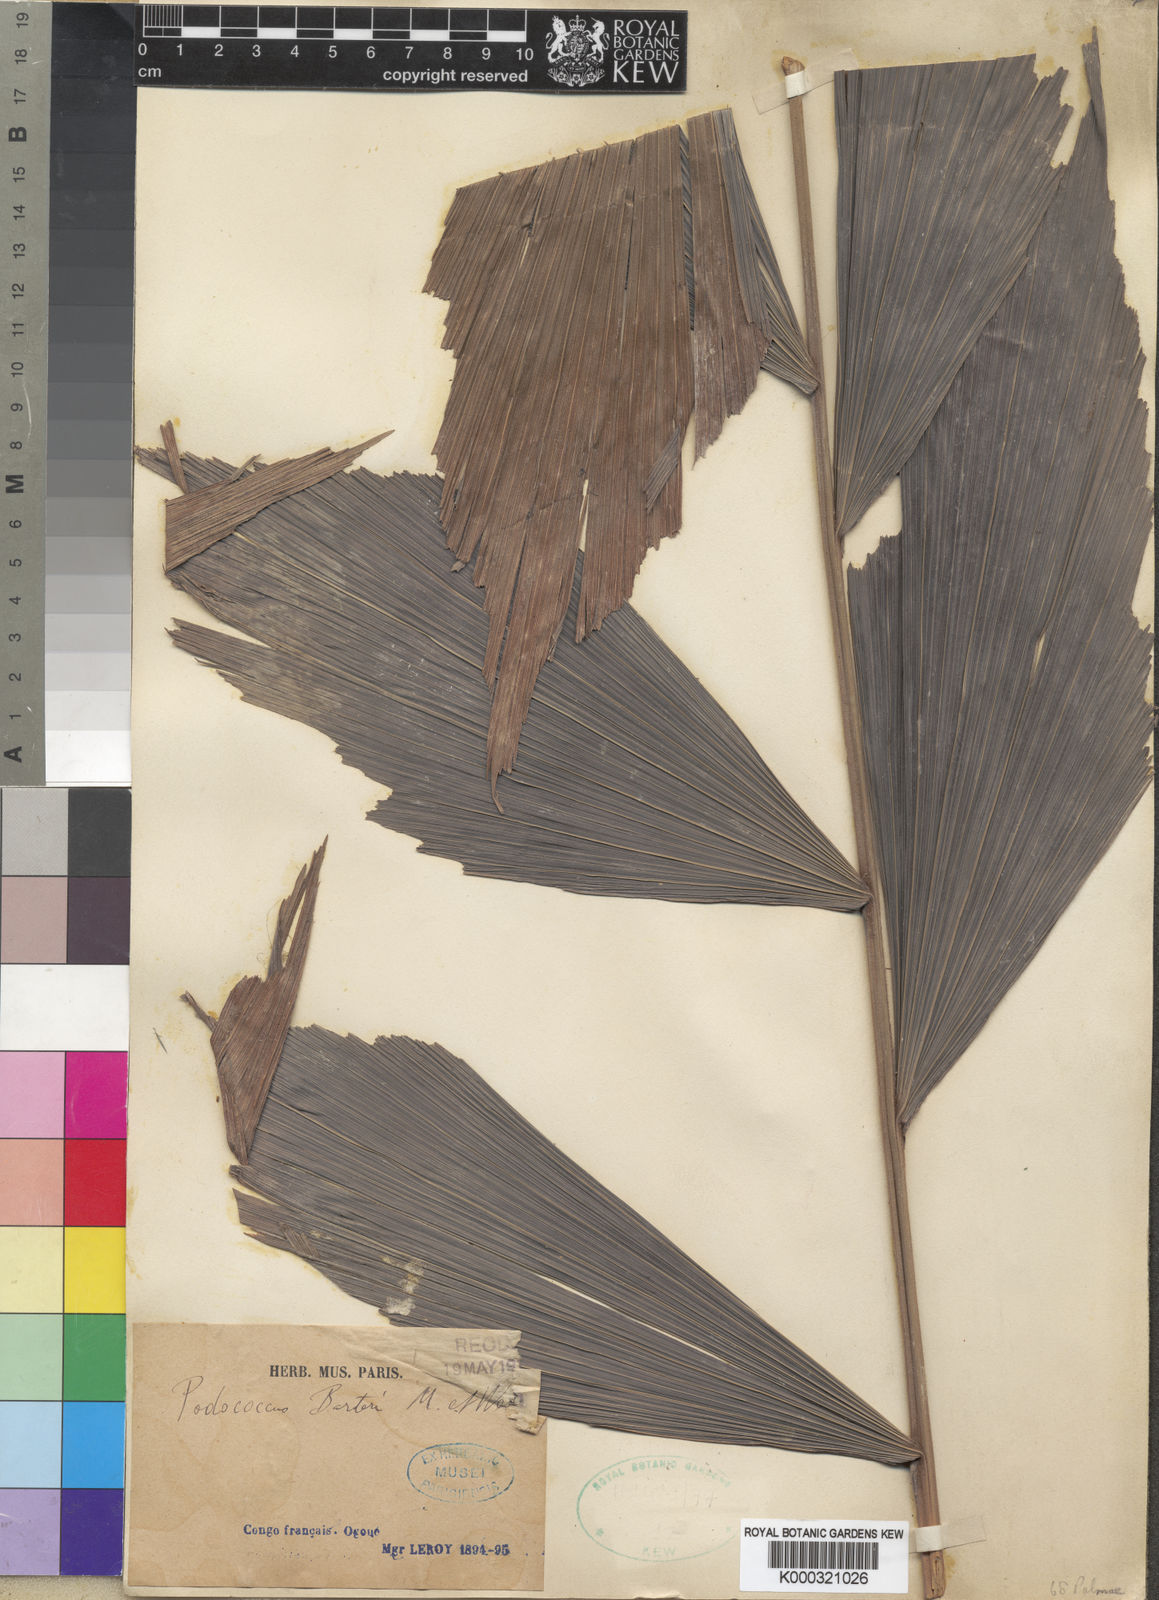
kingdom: Plantae
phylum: Tracheophyta
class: Liliopsida
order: Arecales
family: Arecaceae
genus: Podococcus
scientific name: Podococcus acaulis
